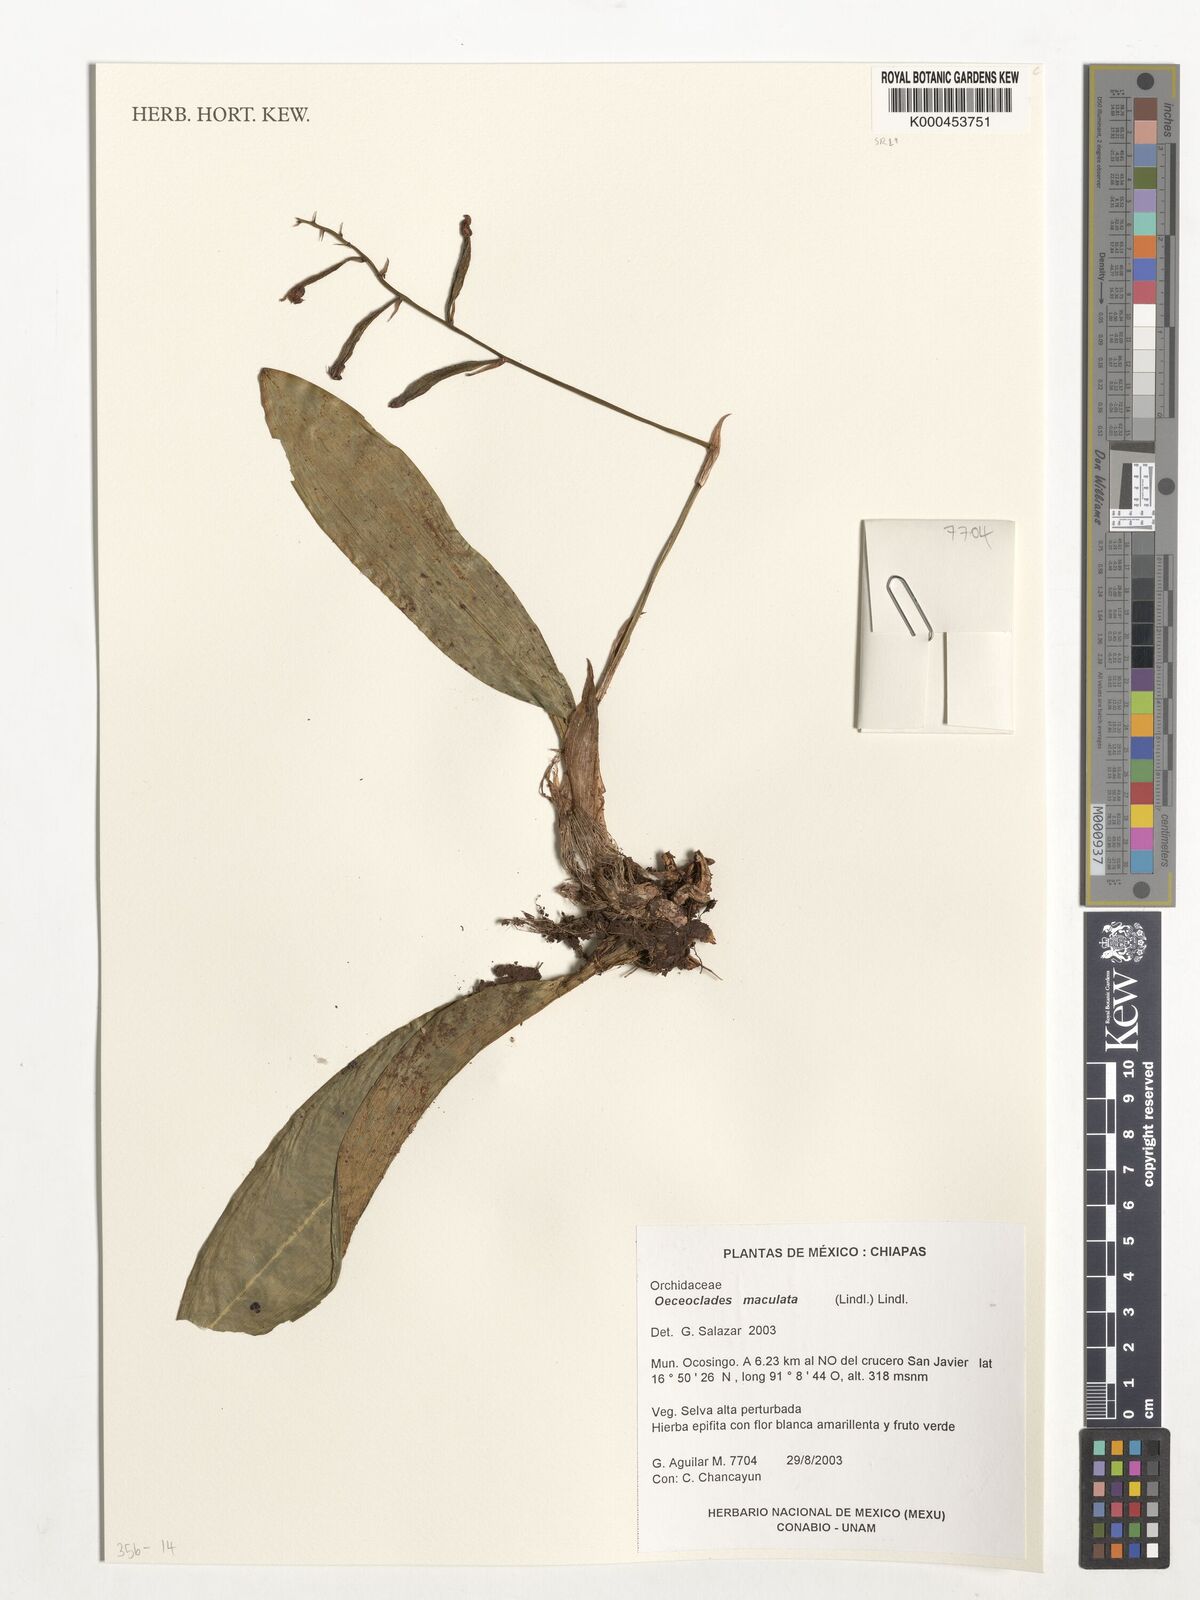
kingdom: Plantae
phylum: Tracheophyta
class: Liliopsida
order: Asparagales
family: Orchidaceae
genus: Eulophia
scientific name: Eulophia maculata
